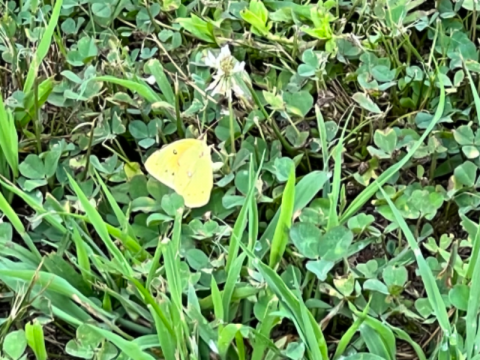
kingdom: Animalia
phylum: Arthropoda
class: Insecta
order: Lepidoptera
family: Pieridae
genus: Colias
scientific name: Colias eurytheme
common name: Orange Sulphur
